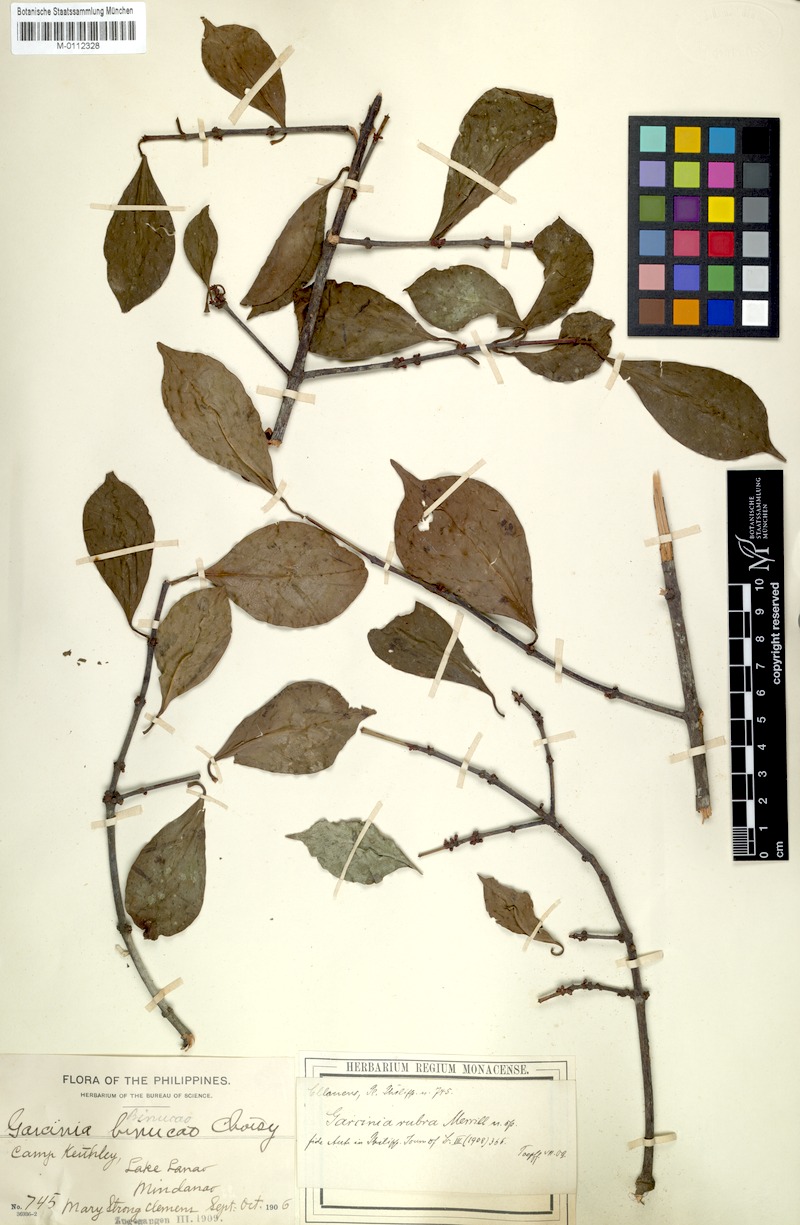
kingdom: Plantae
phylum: Tracheophyta
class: Magnoliopsida
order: Malpighiales
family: Clusiaceae
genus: Garcinia
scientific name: Garcinia rubra
